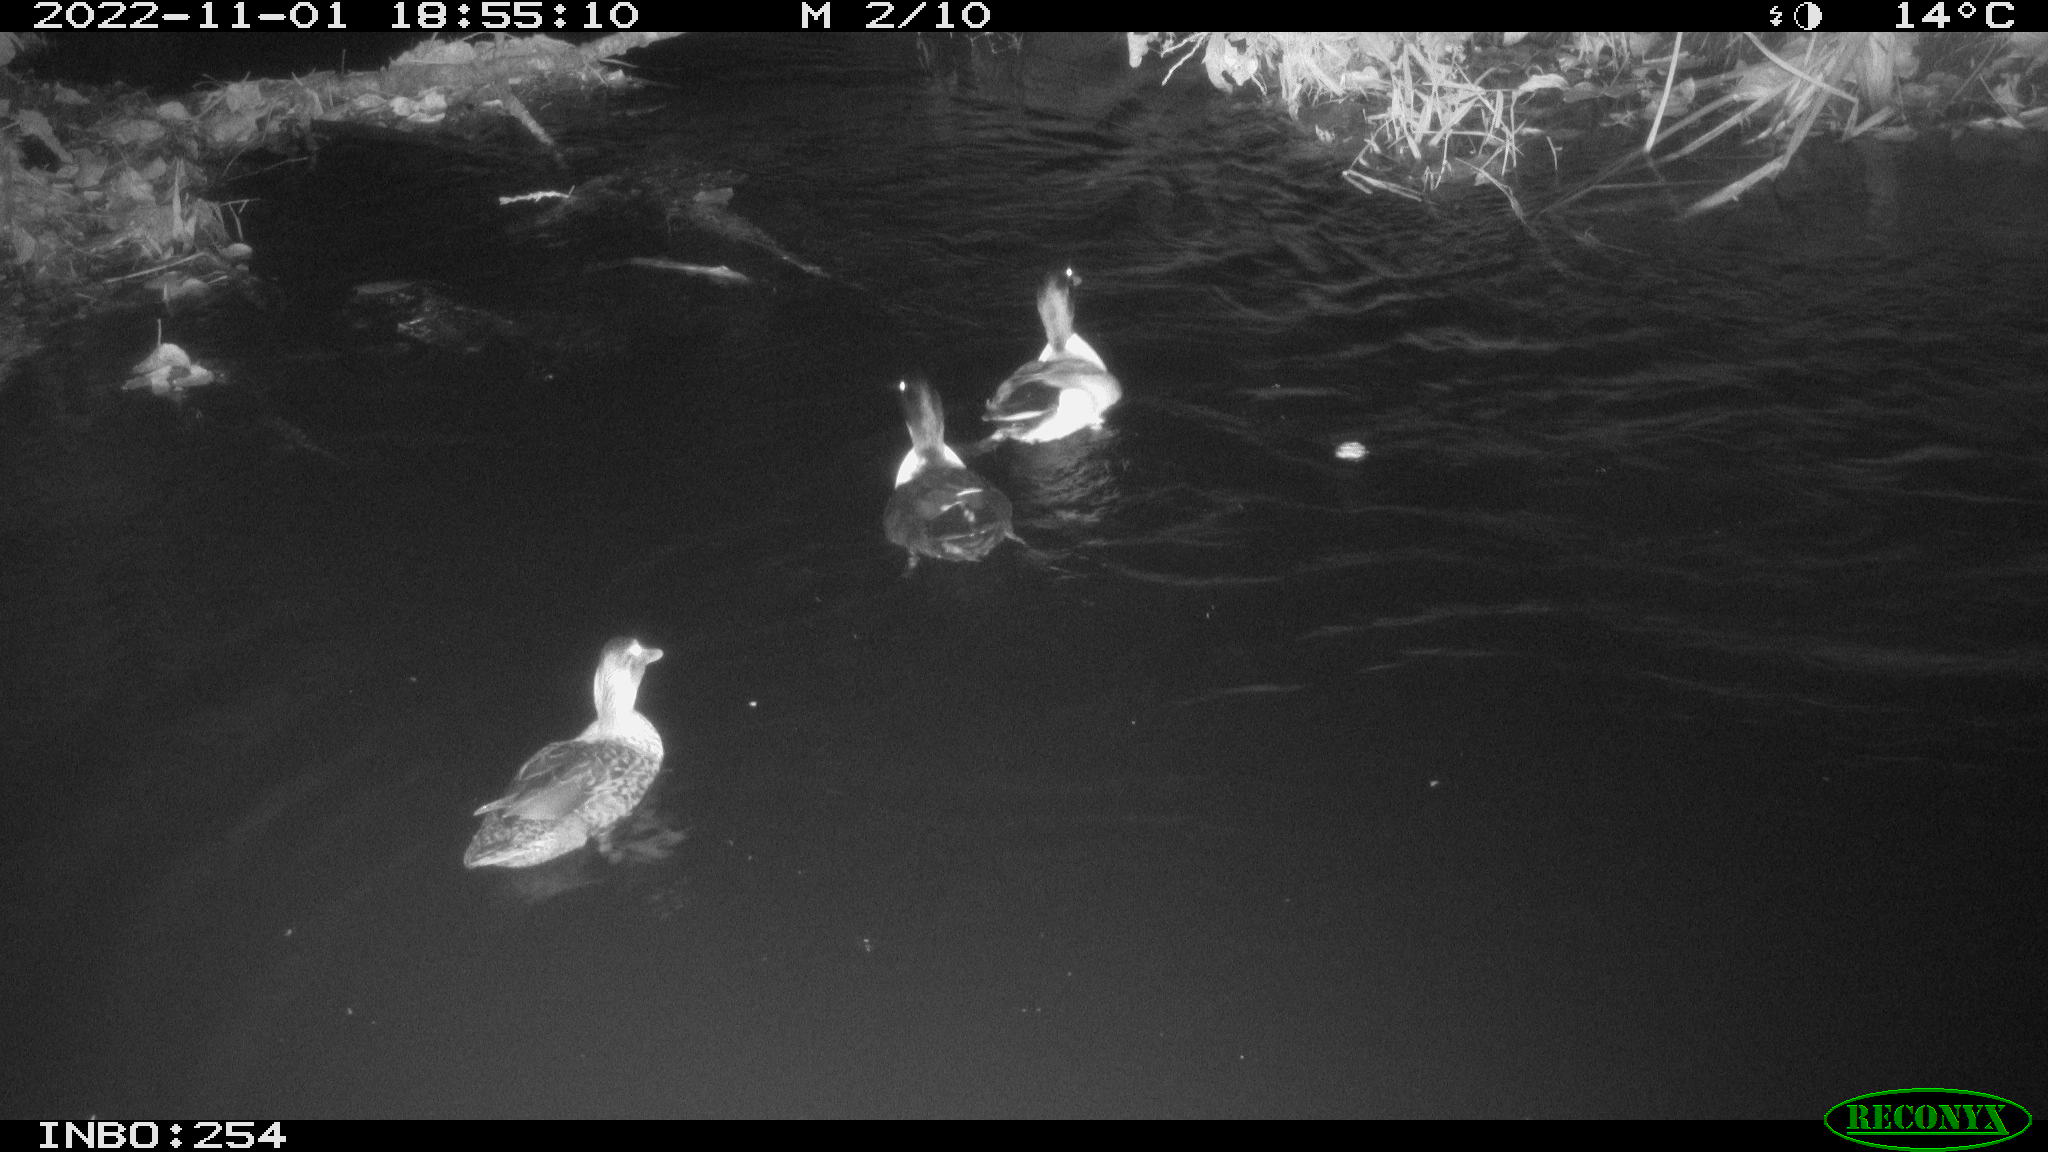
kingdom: Animalia
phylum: Chordata
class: Aves
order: Anseriformes
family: Anatidae
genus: Anas
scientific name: Anas
